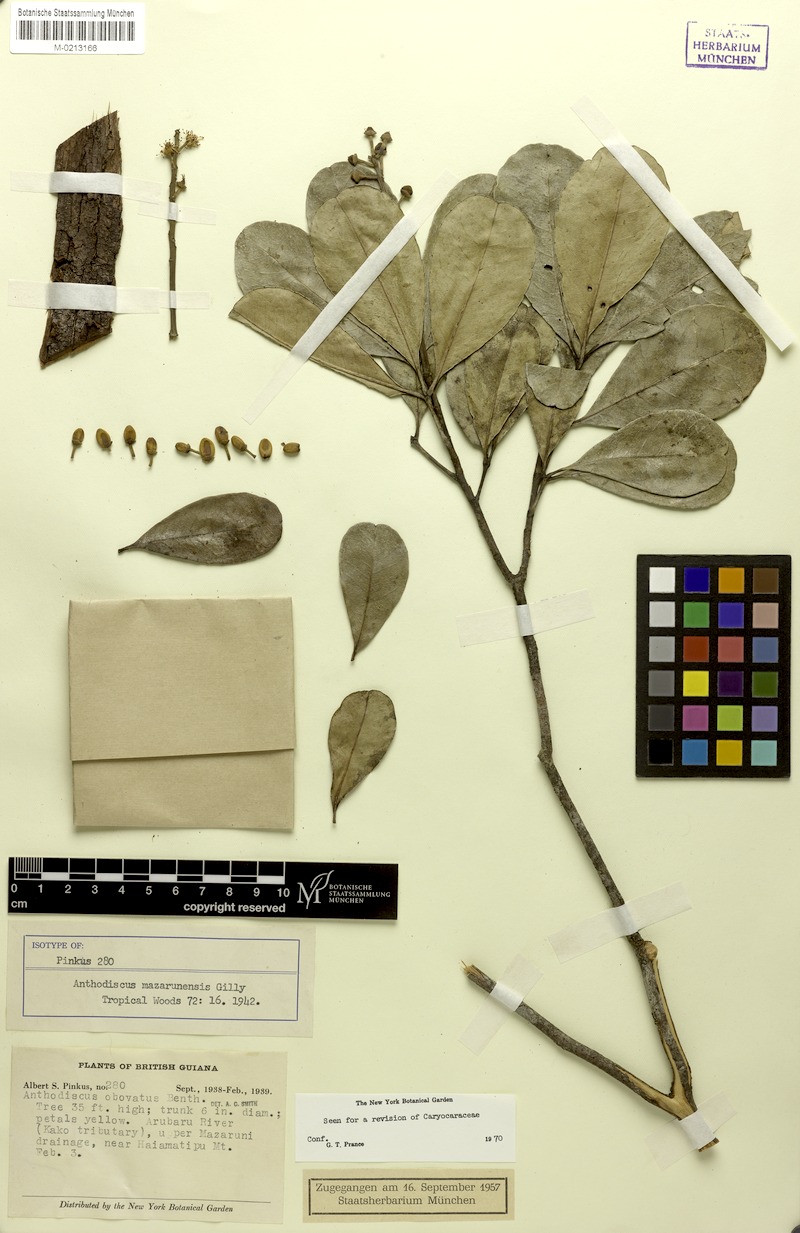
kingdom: Plantae
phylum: Tracheophyta
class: Magnoliopsida
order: Malpighiales
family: Caryocaraceae
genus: Anthodiscus
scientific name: Anthodiscus mazarunensis
